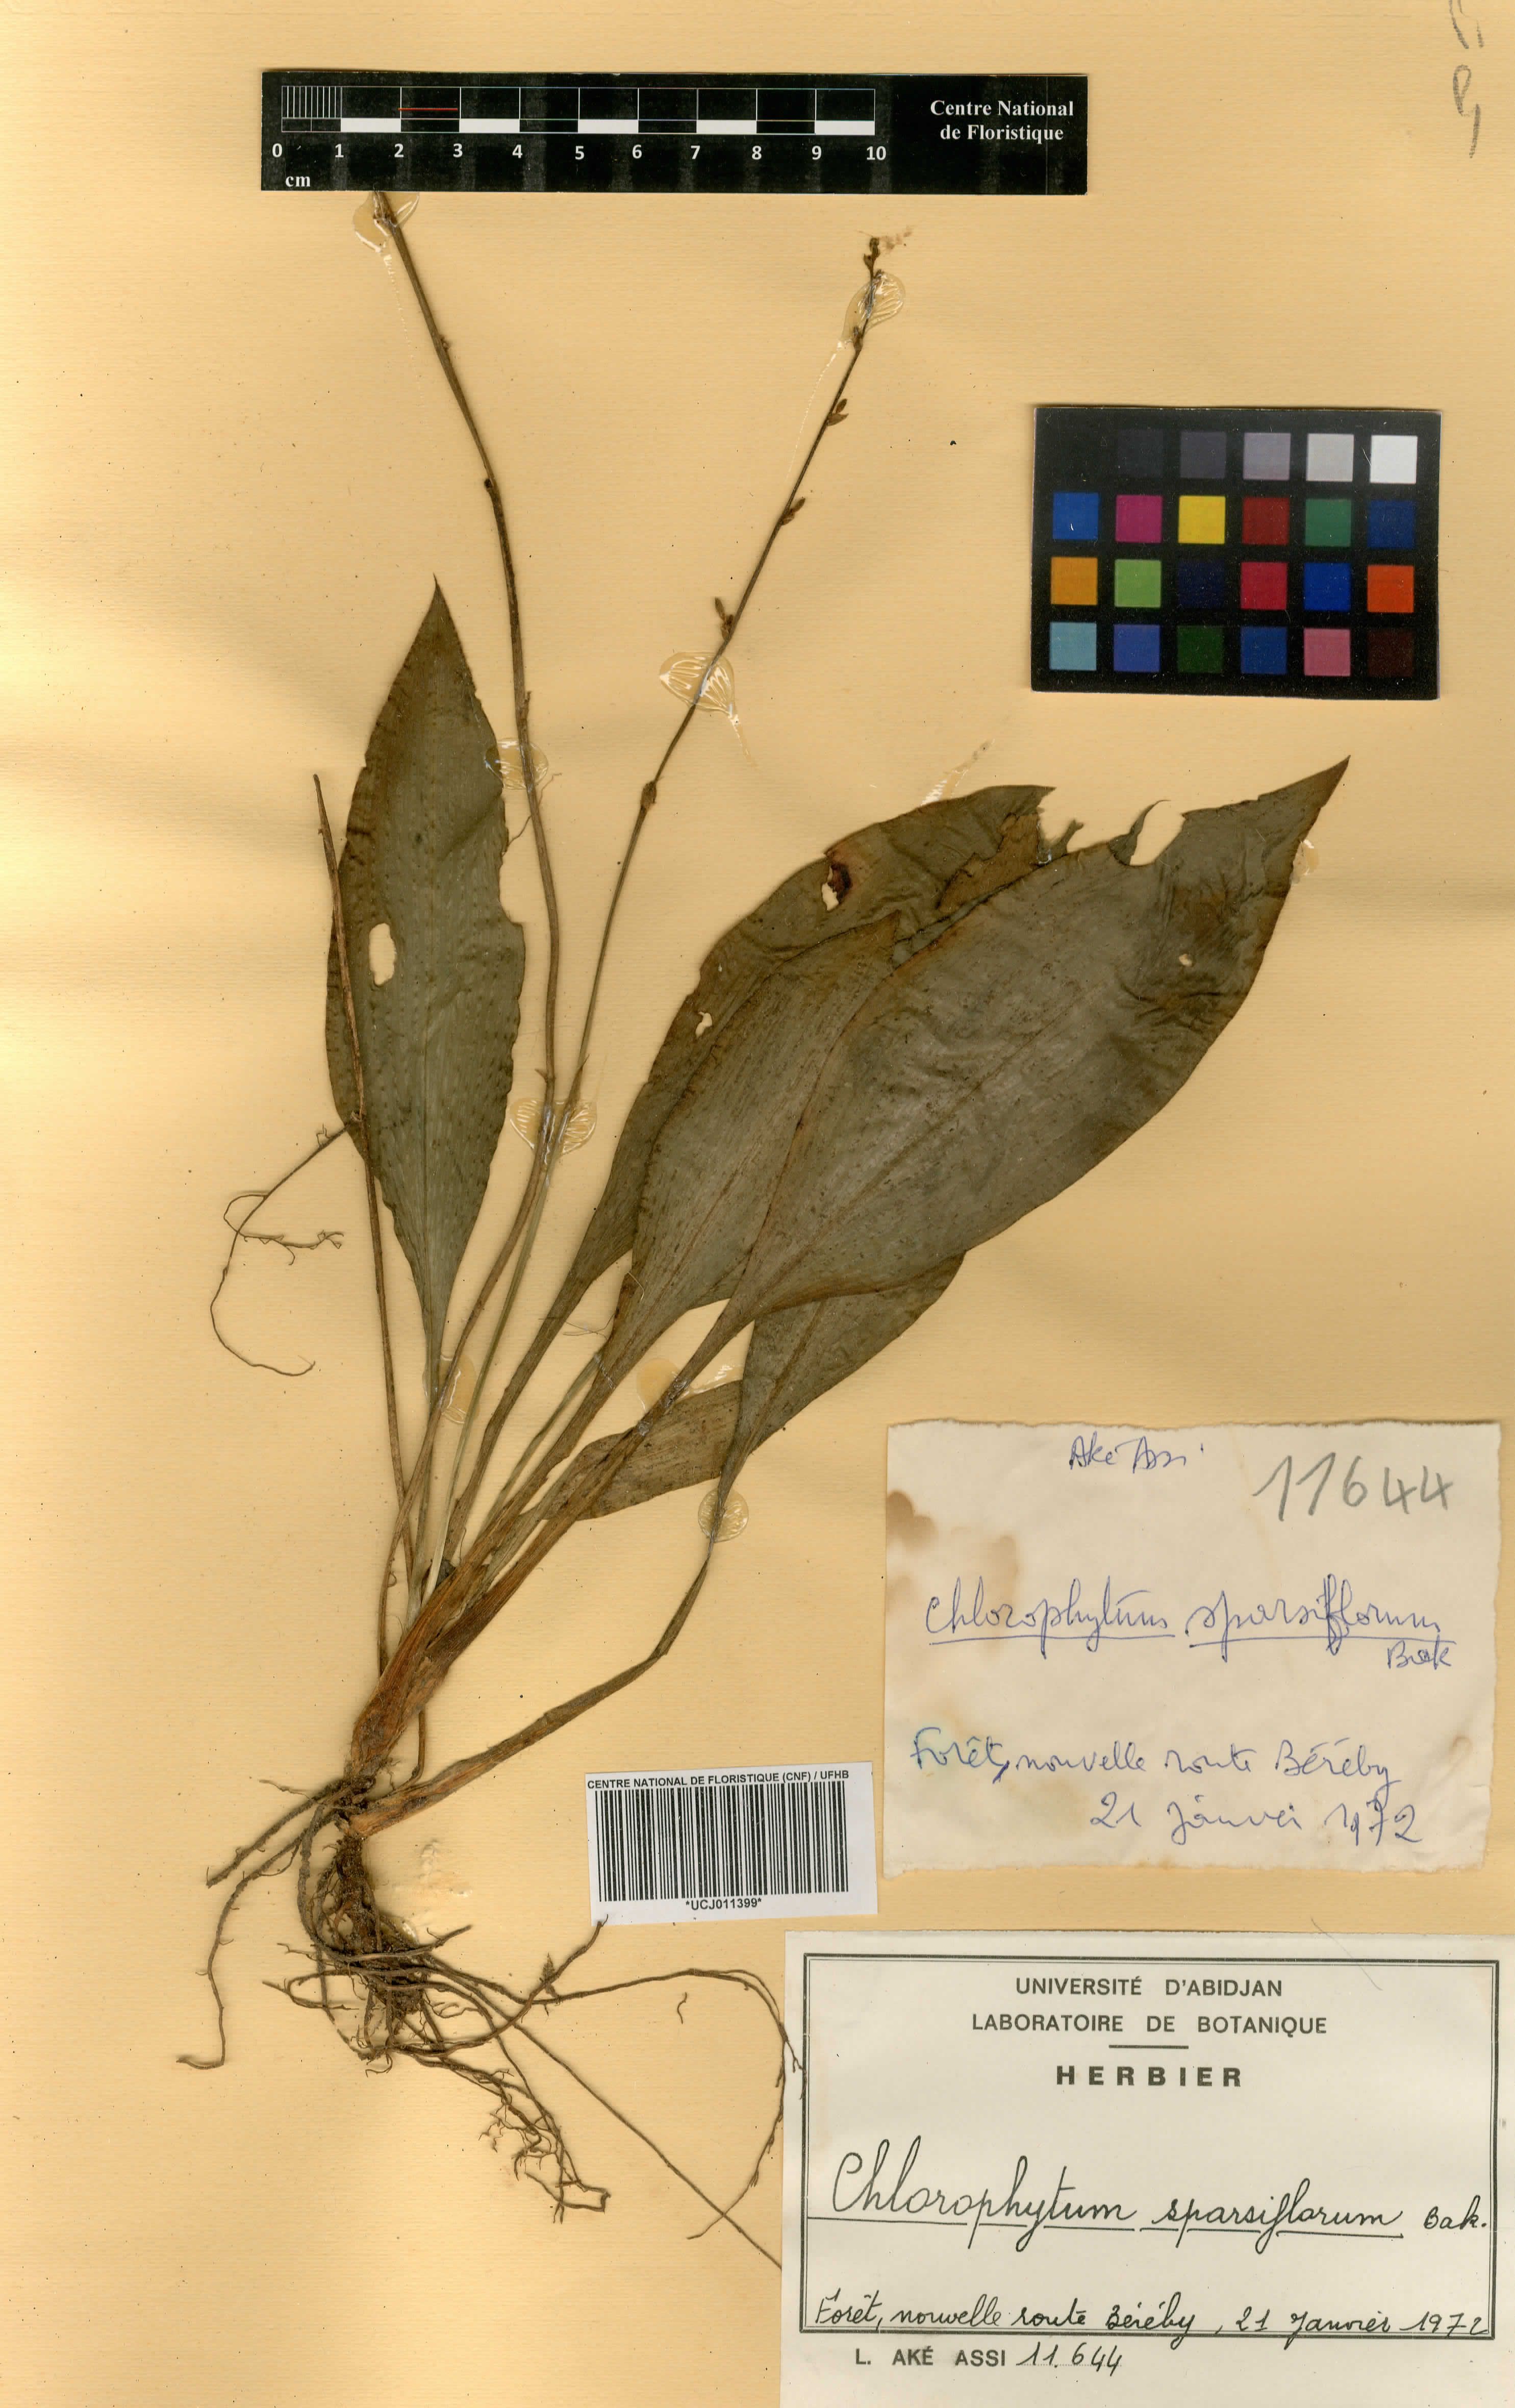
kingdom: Plantae
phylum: Tracheophyta
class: Liliopsida
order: Asparagales
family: Asparagaceae
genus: Chlorophytum
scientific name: Chlorophytum sparsiflorum
